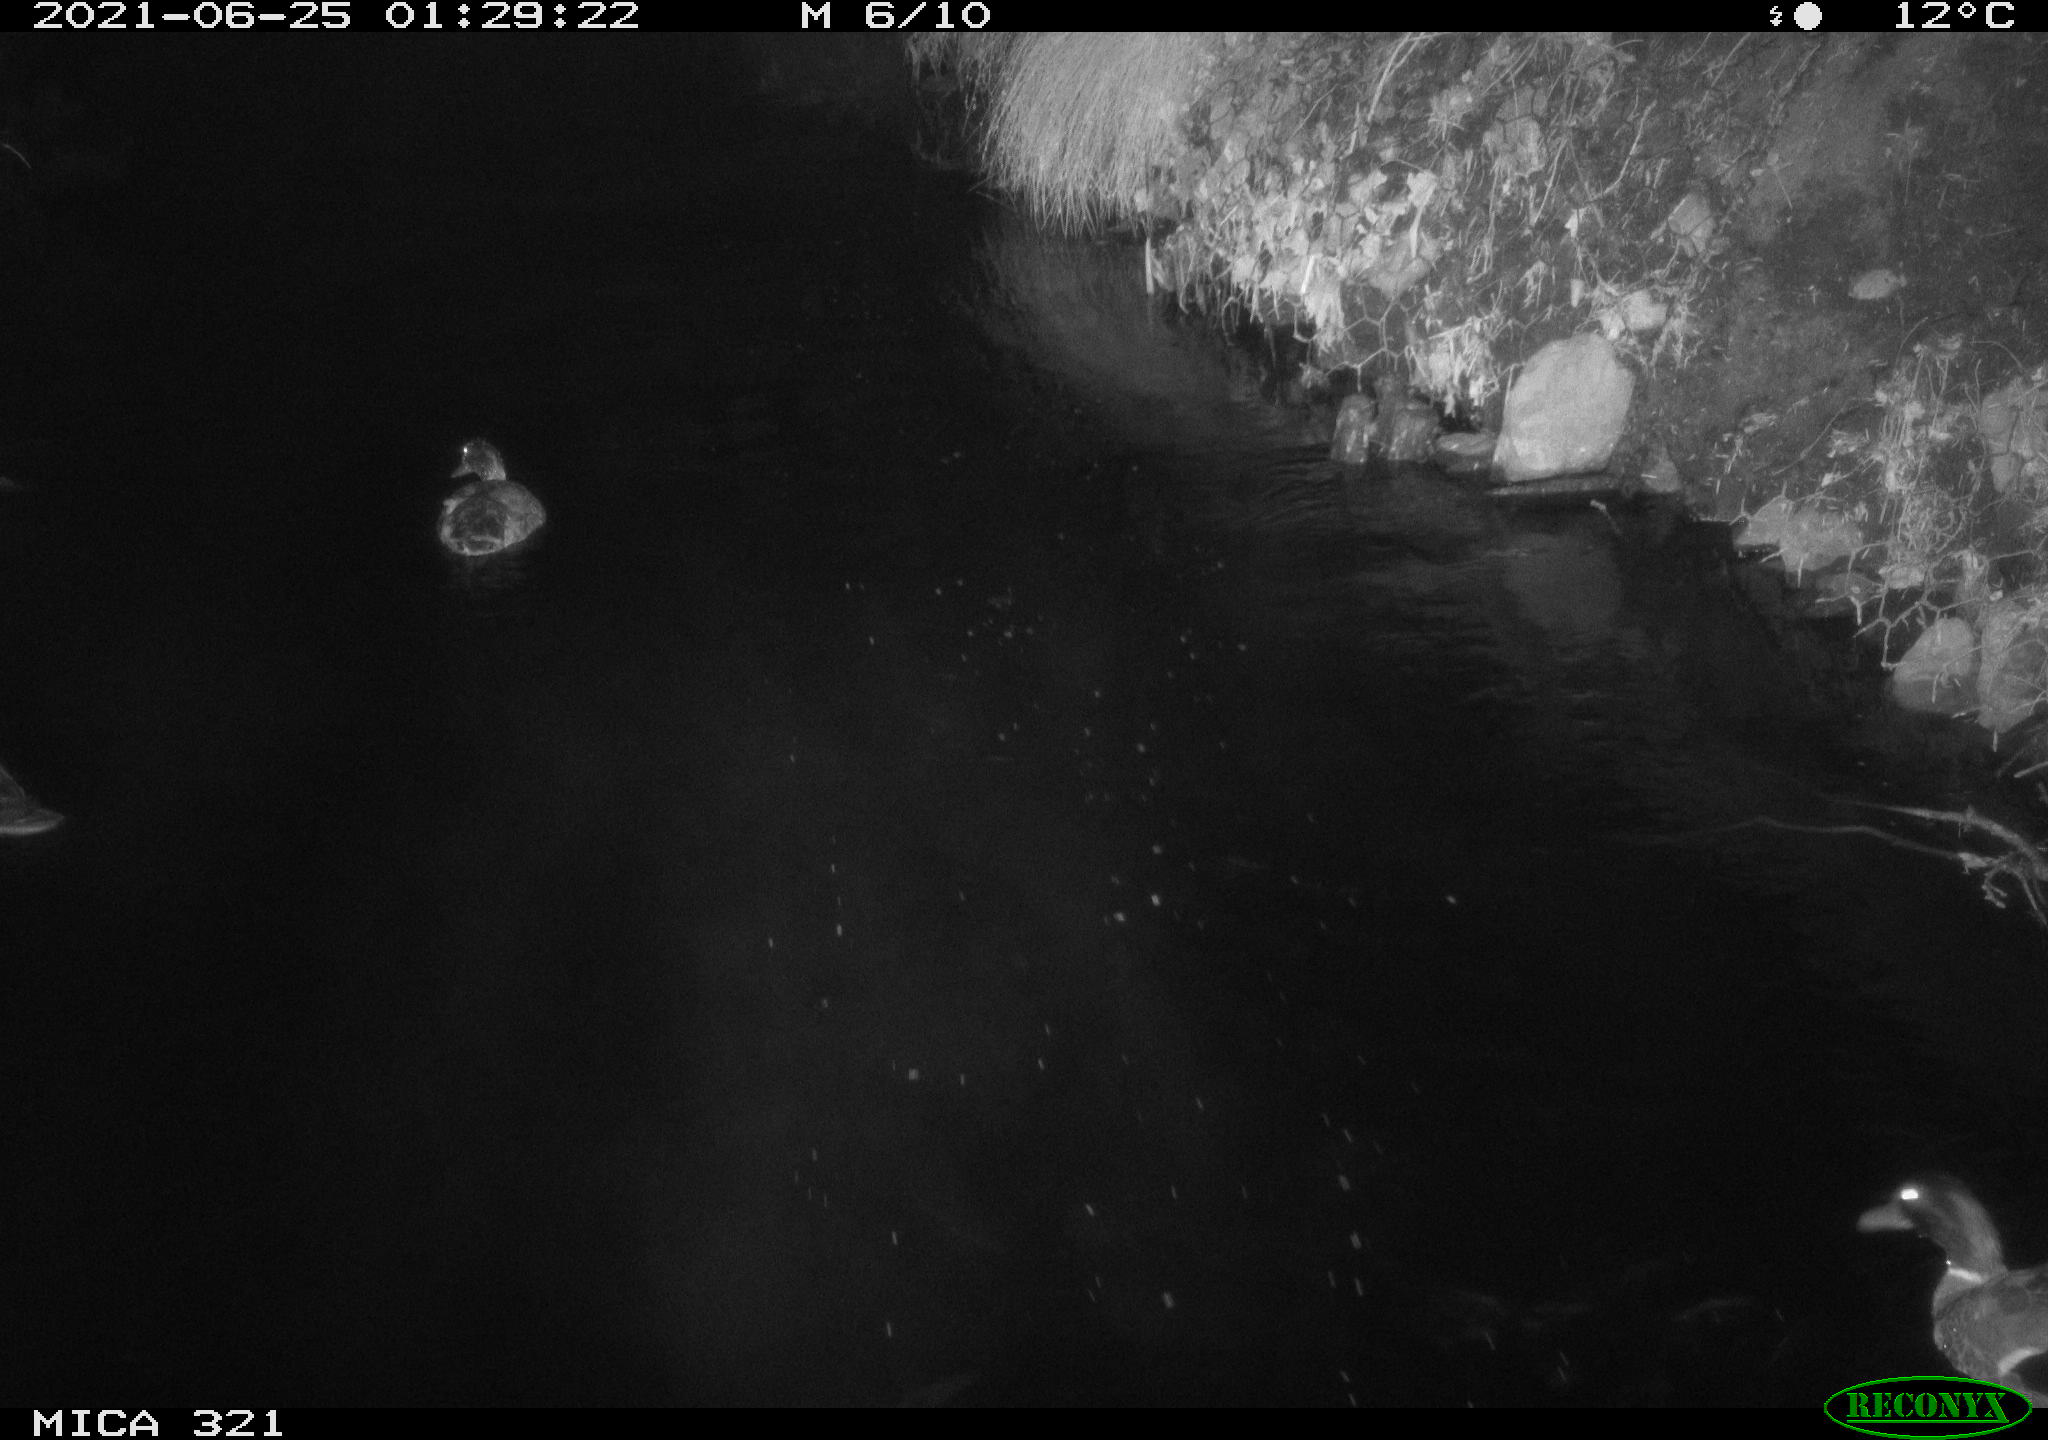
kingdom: Animalia
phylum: Chordata
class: Aves
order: Anseriformes
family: Anatidae
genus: Anas
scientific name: Anas platyrhynchos
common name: Mallard
